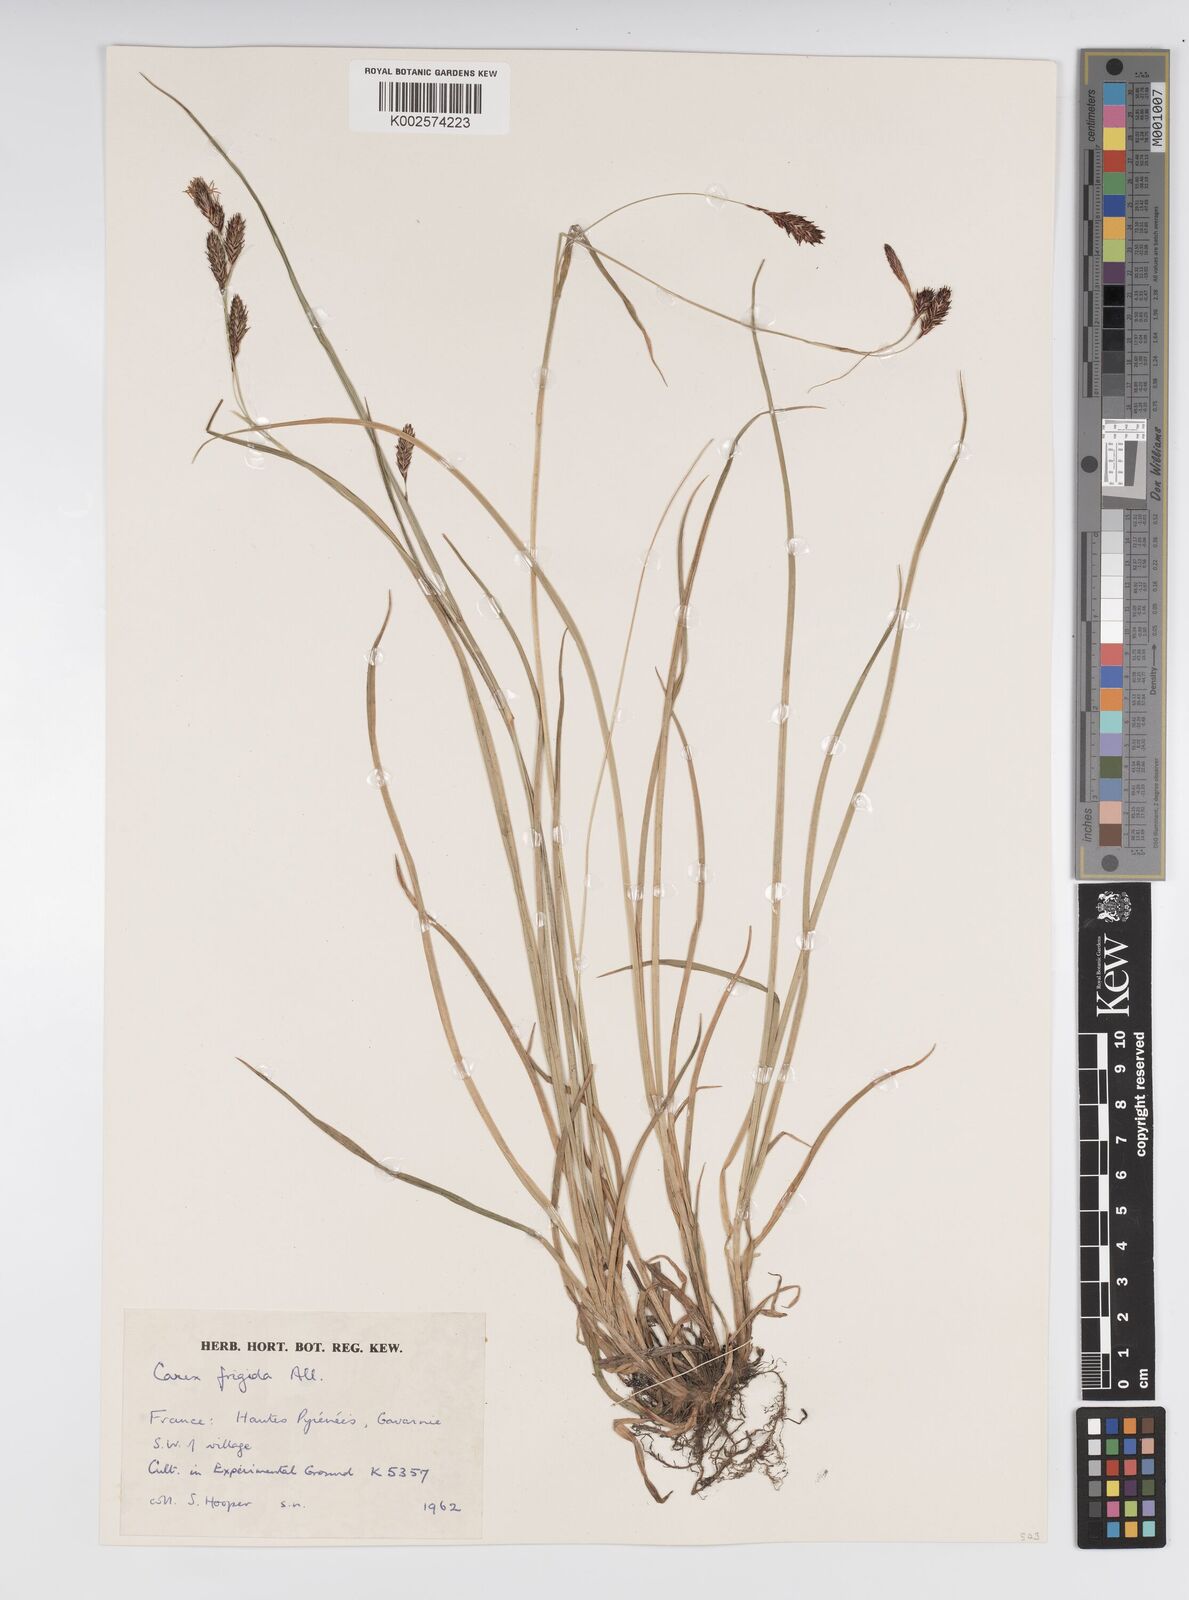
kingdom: Plantae
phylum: Tracheophyta
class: Liliopsida
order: Poales
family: Cyperaceae
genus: Carex
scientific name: Carex frigida
